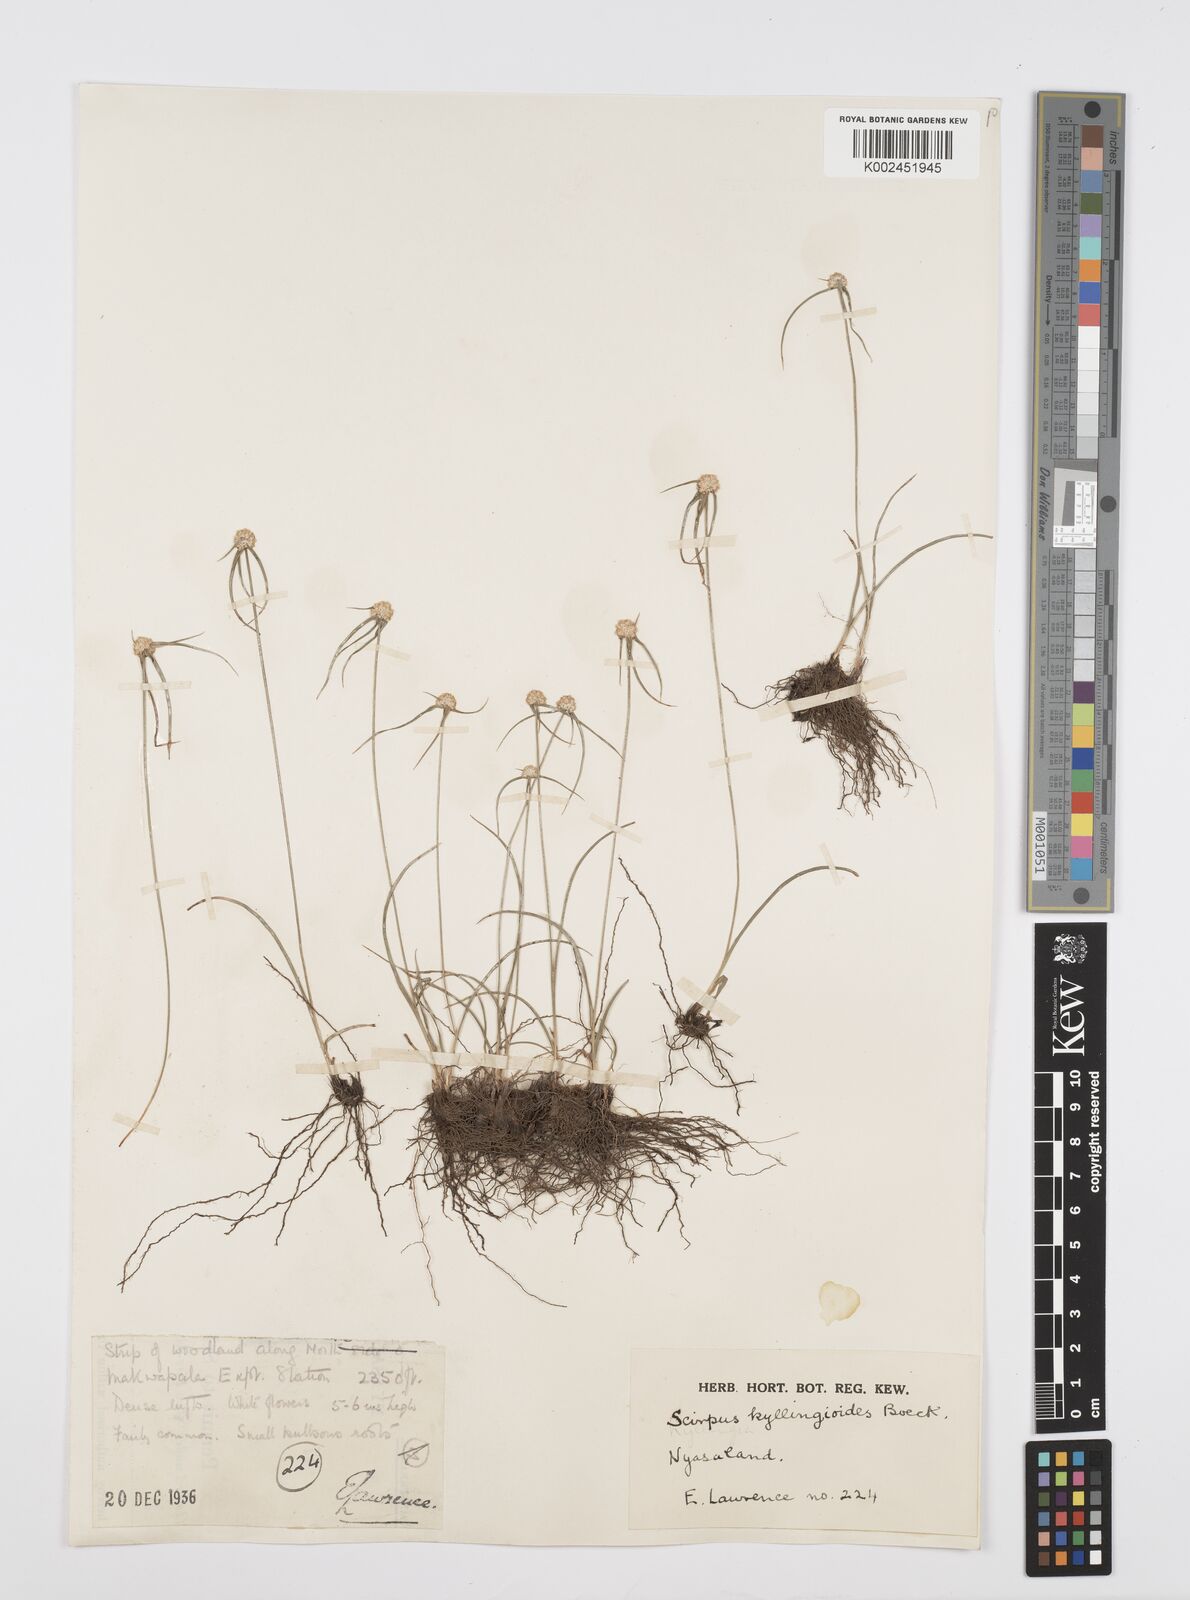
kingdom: Plantae
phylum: Tracheophyta
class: Liliopsida
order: Poales
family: Cyperaceae
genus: Cyperus
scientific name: Cyperus microcephalus
